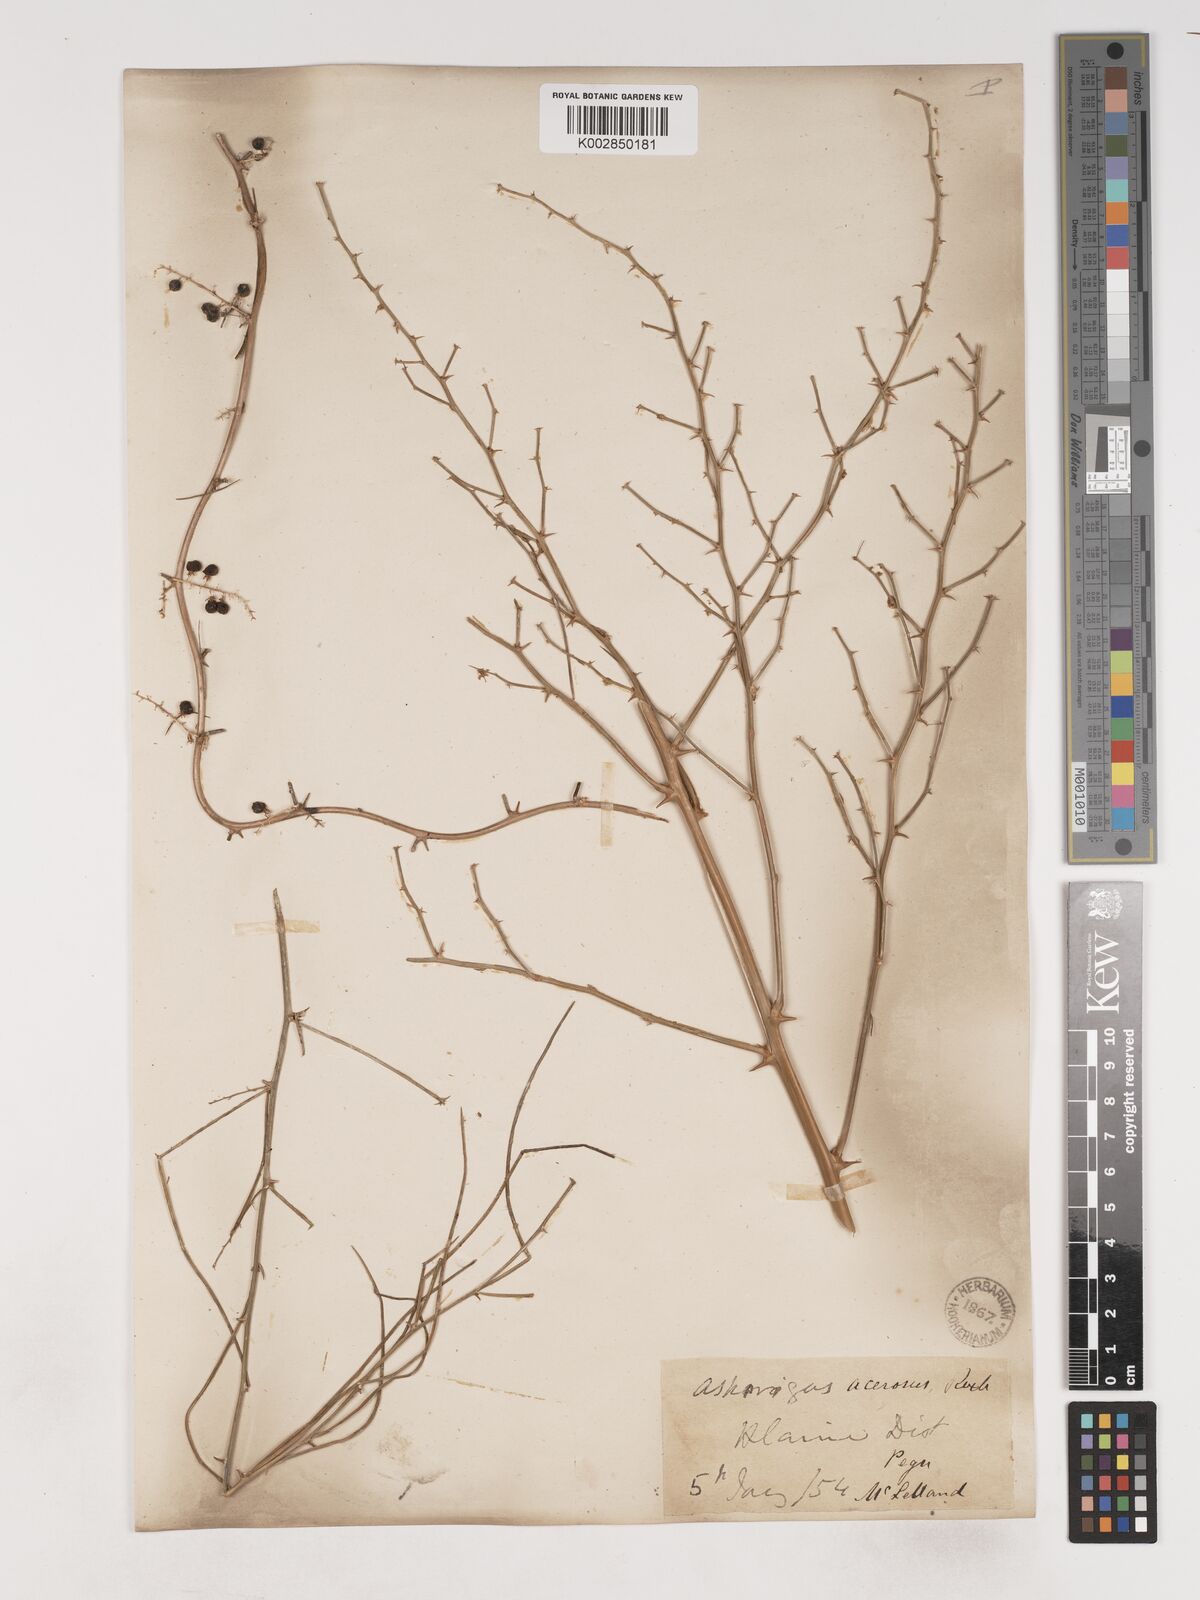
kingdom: Plantae
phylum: Tracheophyta
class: Liliopsida
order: Asparagales
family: Asparagaceae
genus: Asparagus
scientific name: Asparagus racemosus
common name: Asparagus-fern
